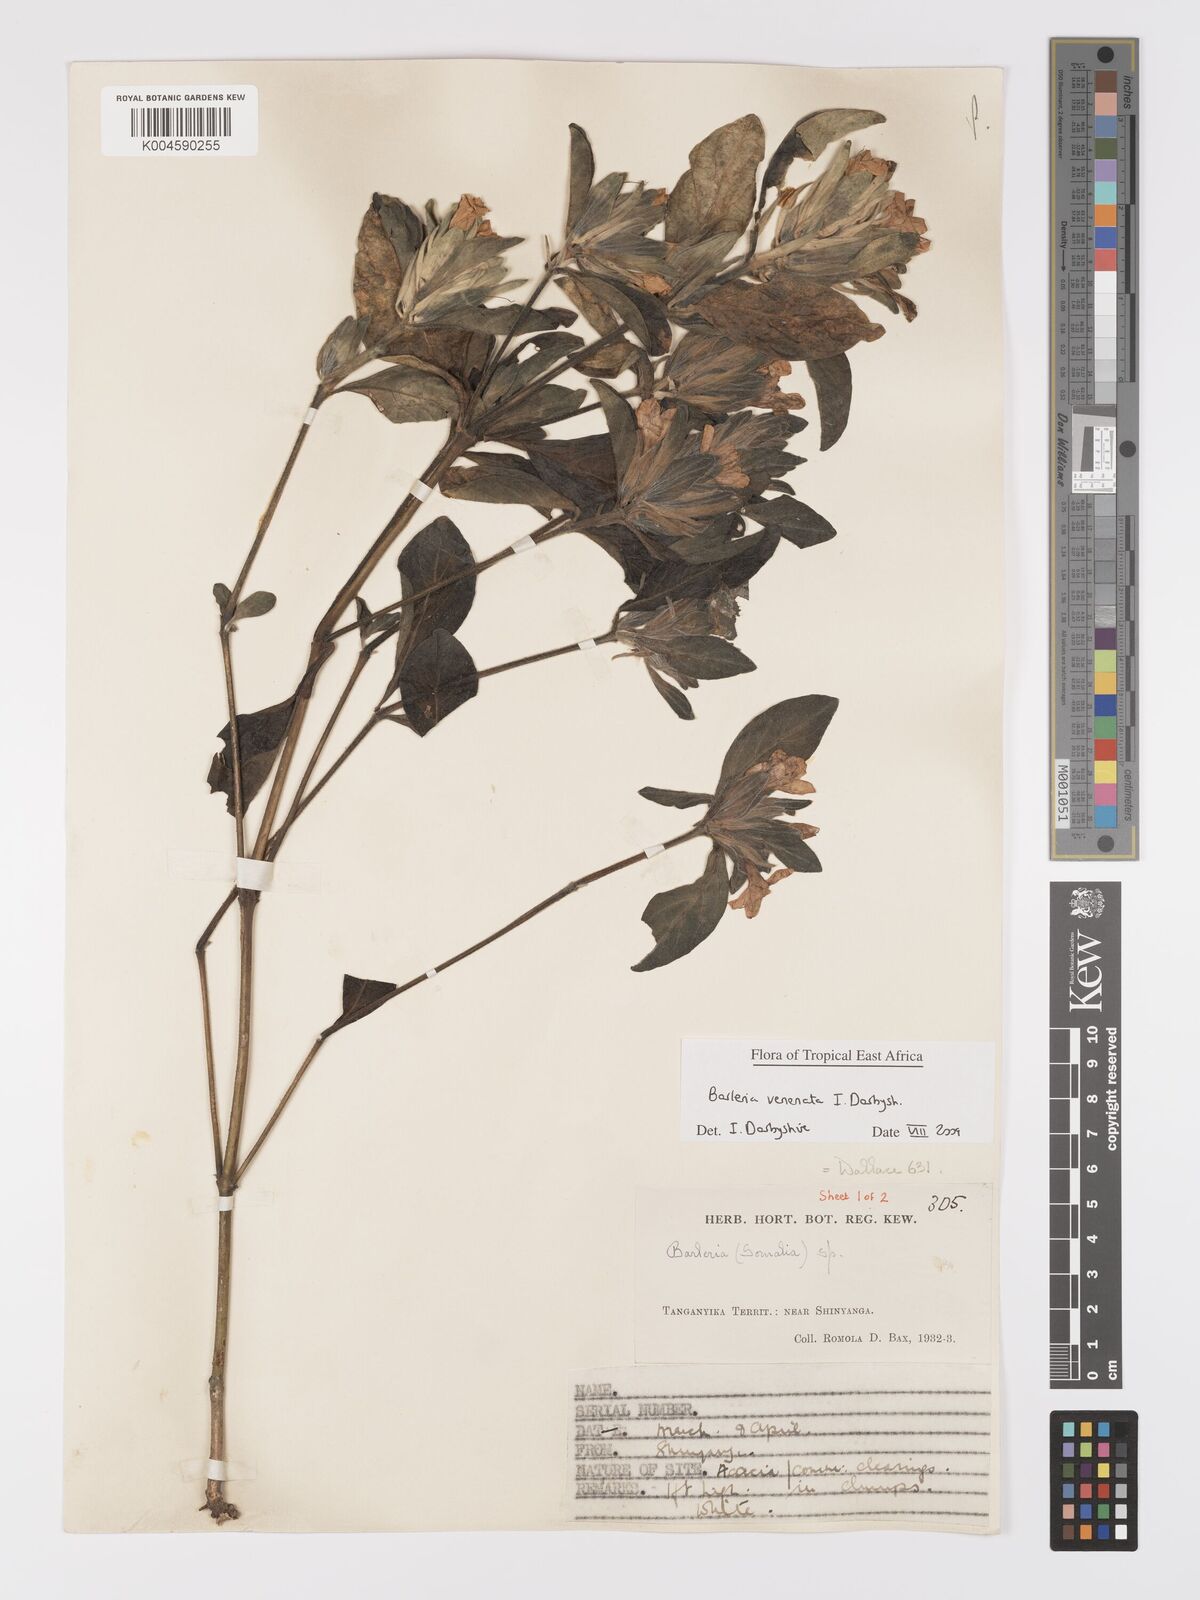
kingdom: Plantae
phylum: Tracheophyta
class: Magnoliopsida
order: Lamiales
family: Acanthaceae
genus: Barleria
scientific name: Barleria venenata
